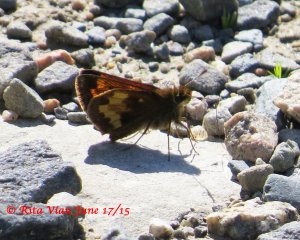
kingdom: Animalia
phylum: Arthropoda
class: Insecta
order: Lepidoptera
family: Hesperiidae
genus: Lon
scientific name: Lon hobomok
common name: Hobomok Skipper
